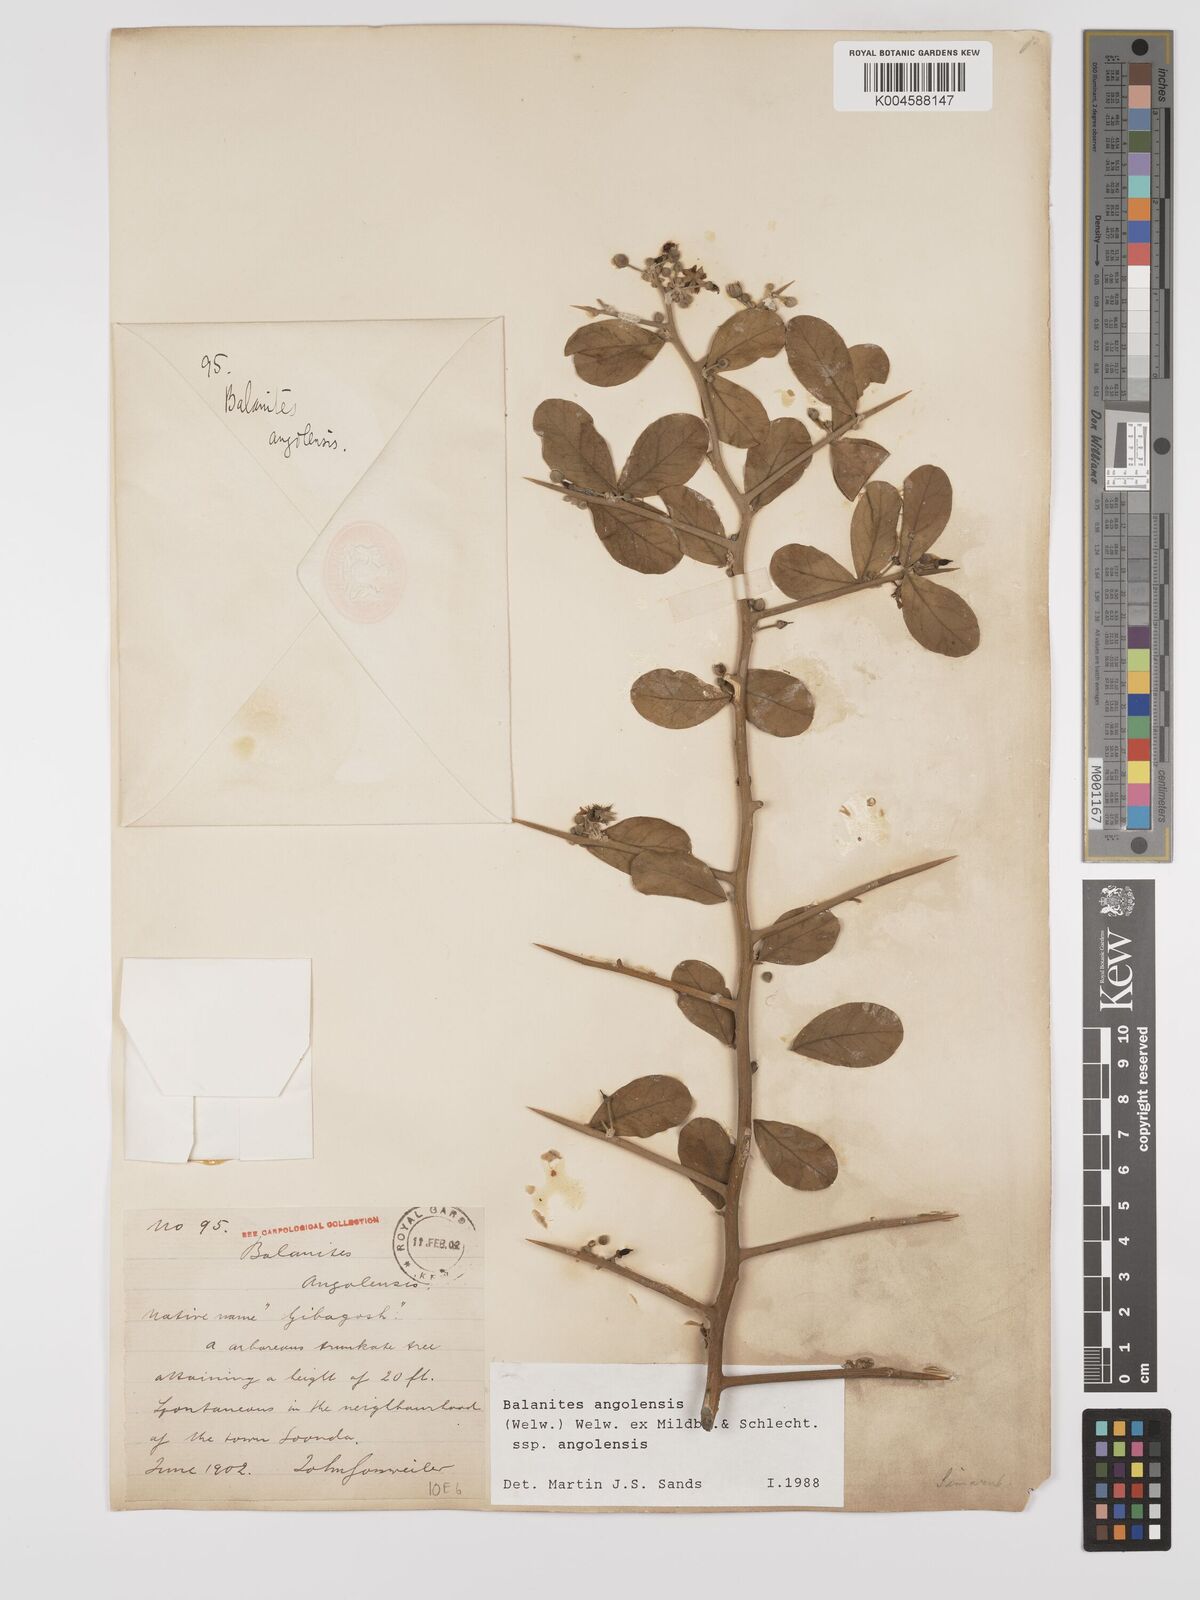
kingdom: Plantae
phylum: Tracheophyta
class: Magnoliopsida
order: Zygophyllales
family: Zygophyllaceae
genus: Balanites
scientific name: Balanites angolensis
